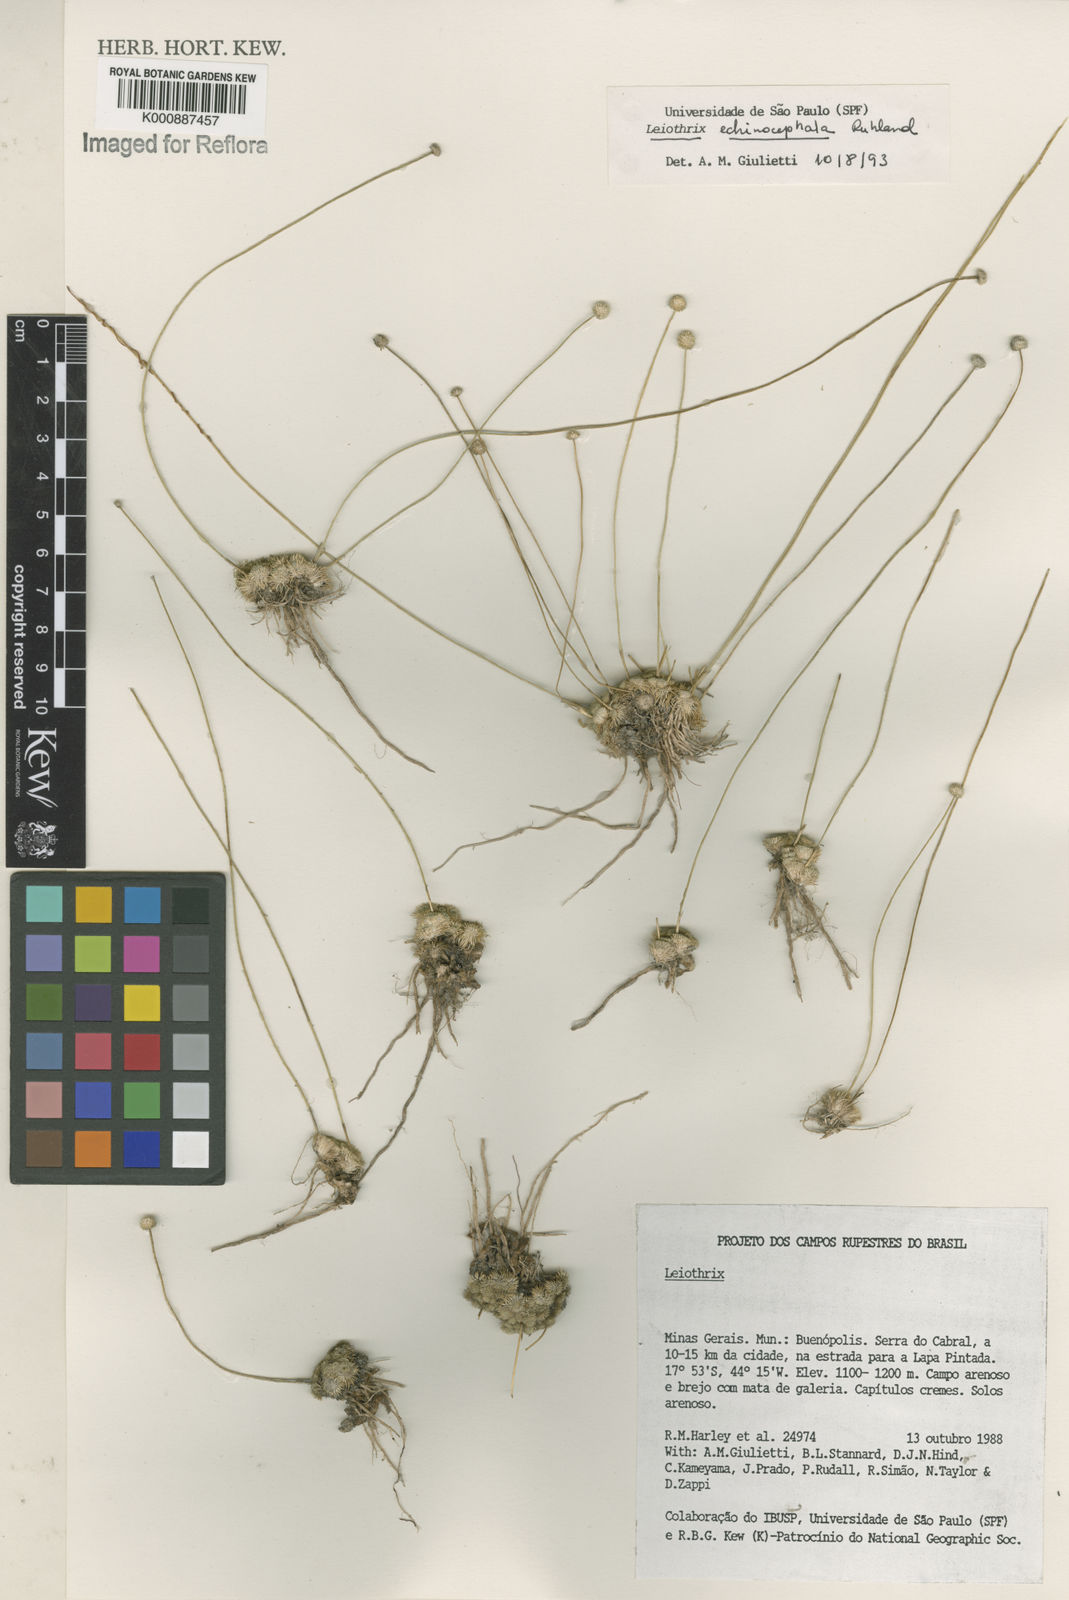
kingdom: Plantae
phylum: Tracheophyta
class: Liliopsida
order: Poales
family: Eriocaulaceae
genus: Leiothrix
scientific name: Leiothrix echinocephala
